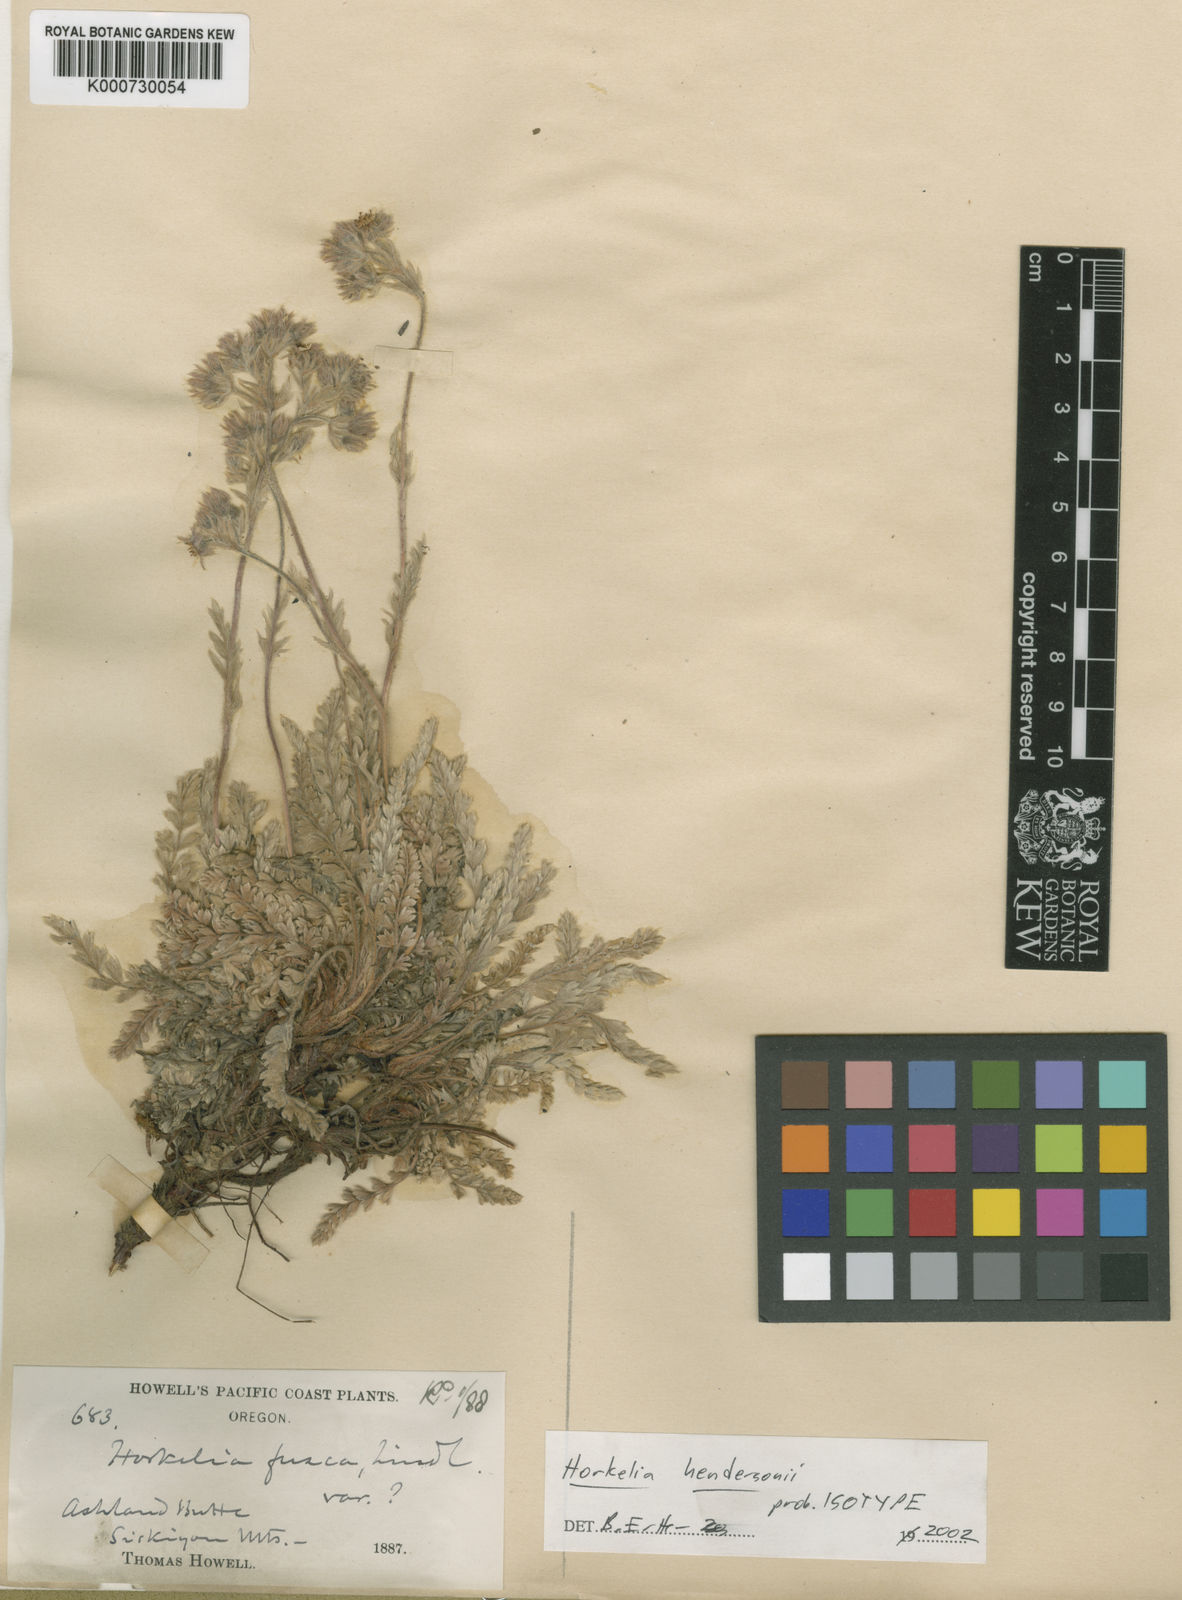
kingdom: Plantae
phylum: Tracheophyta
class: Magnoliopsida
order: Rosales
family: Rosaceae
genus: Potentilla
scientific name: Potentilla hendersonii
